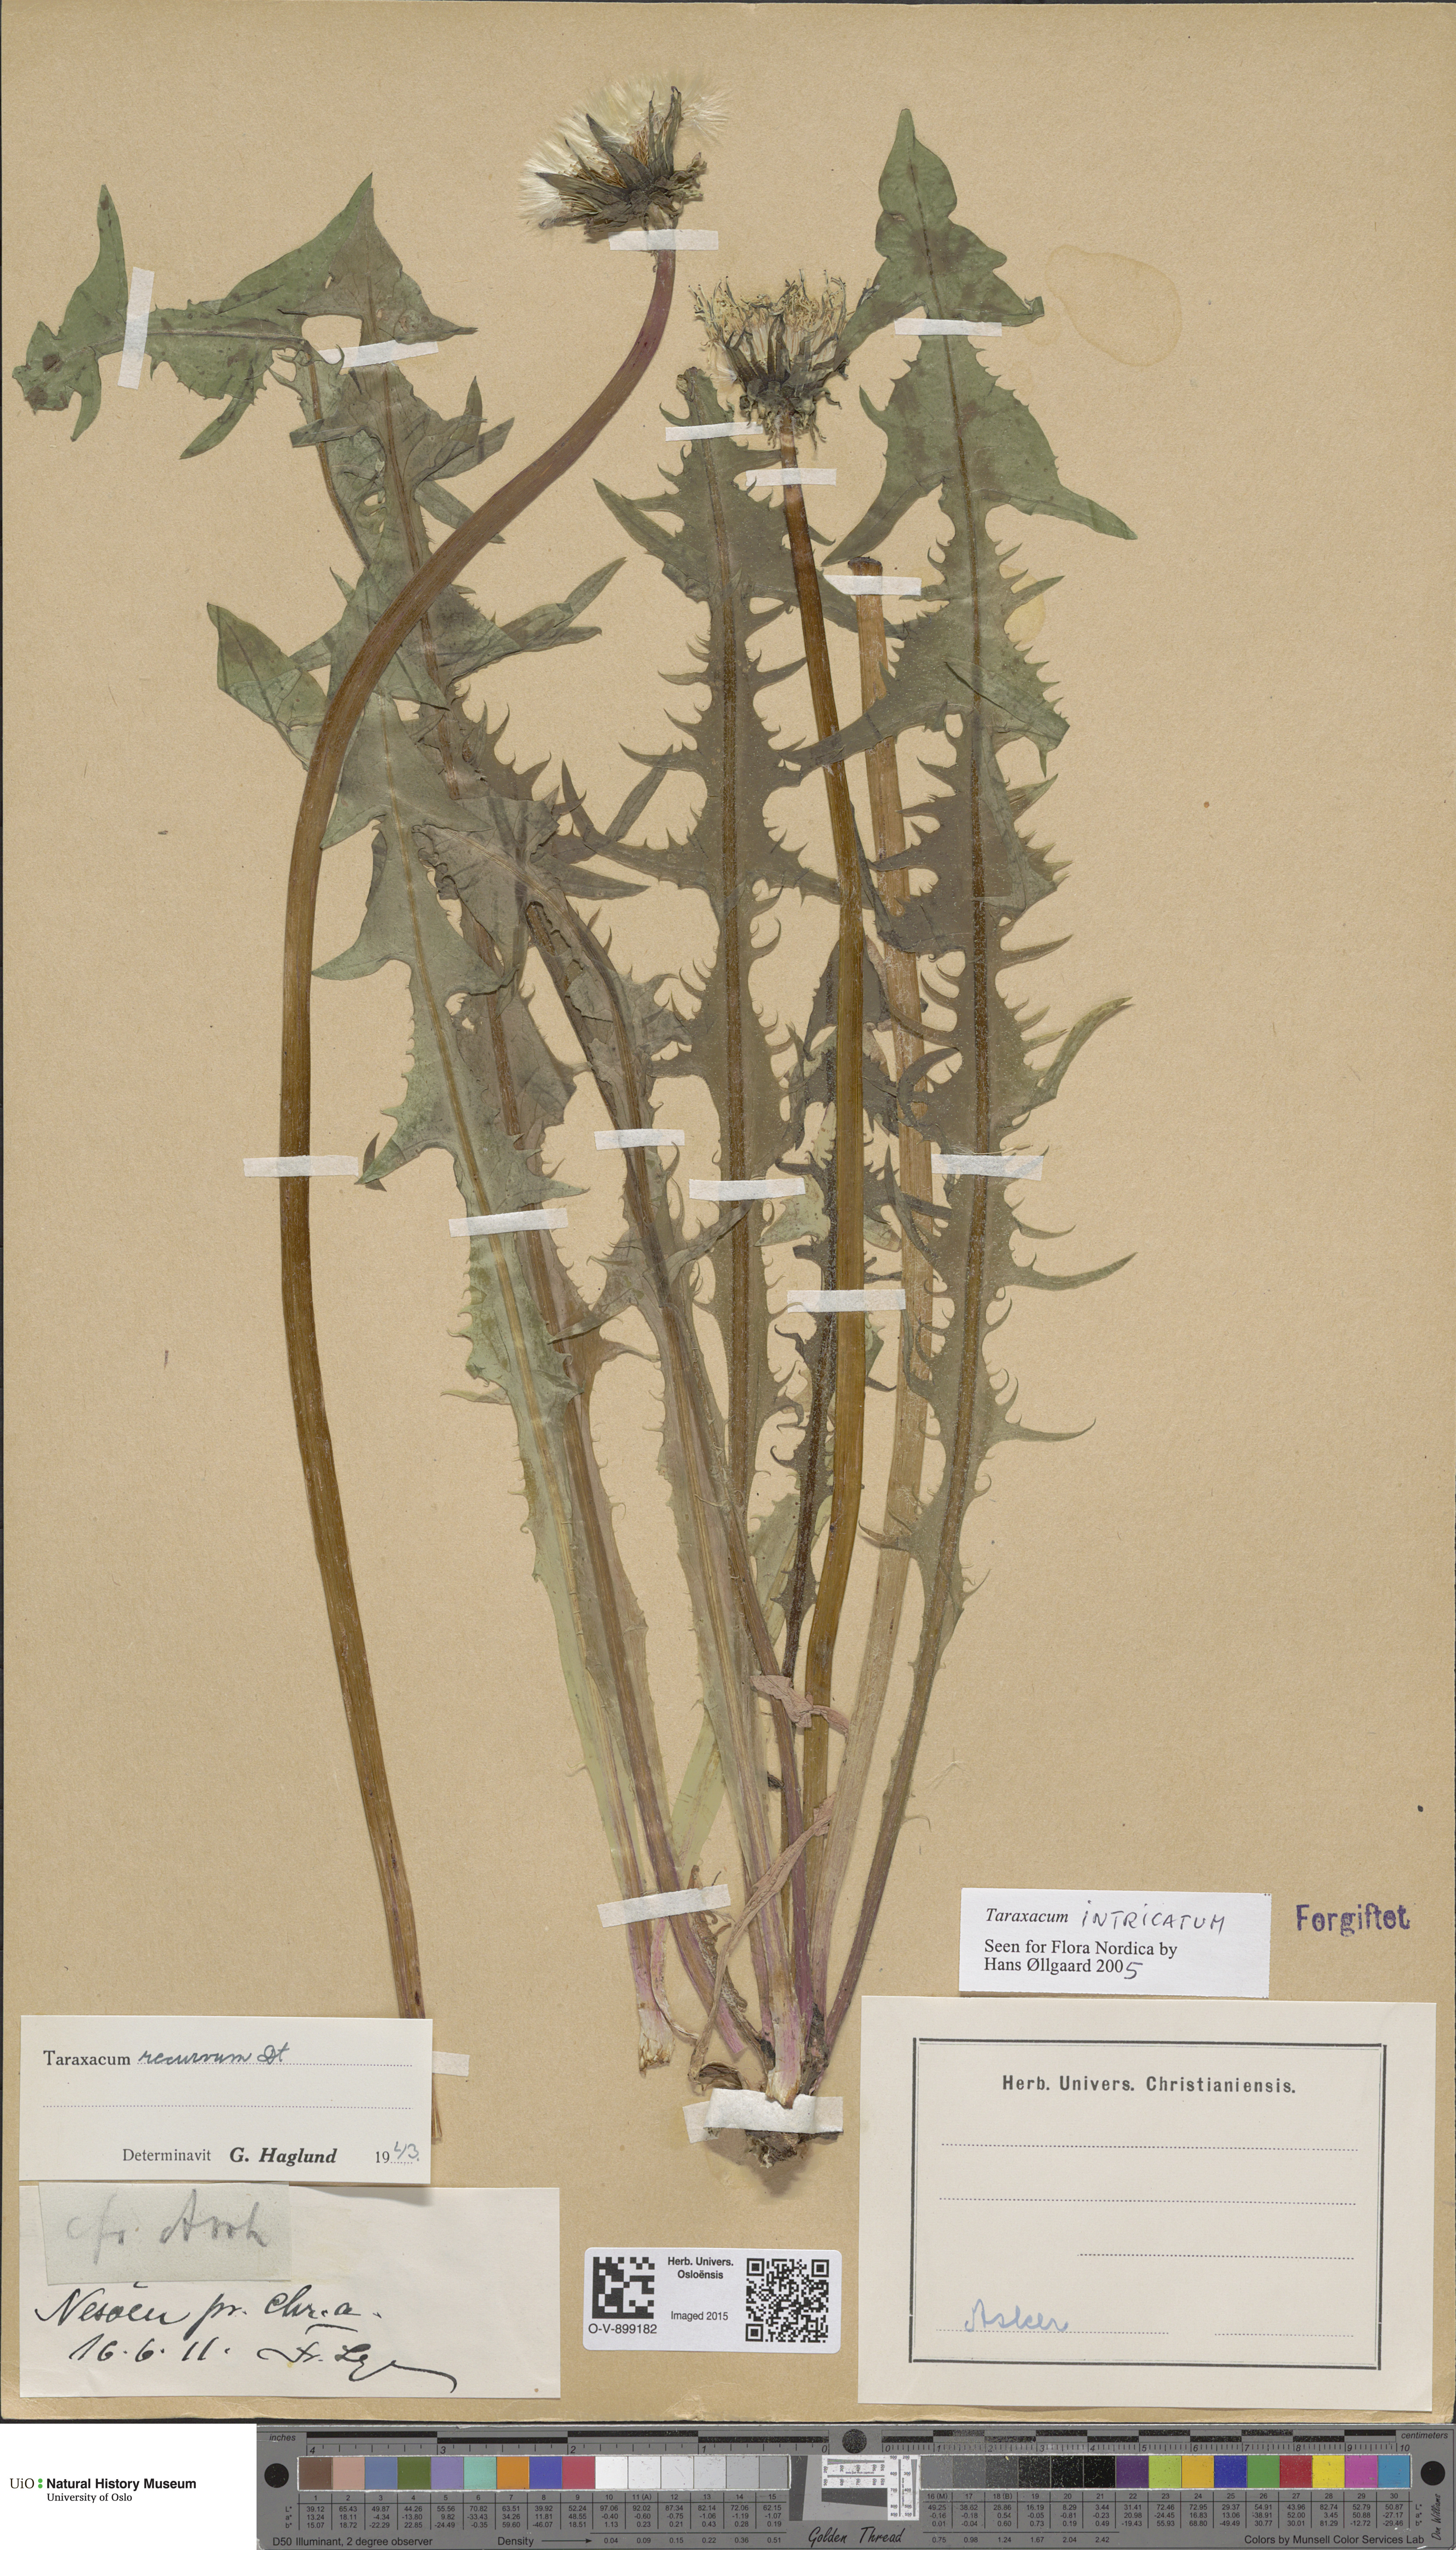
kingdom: Plantae
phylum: Tracheophyta
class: Magnoliopsida
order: Asterales
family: Asteraceae
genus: Taraxacum
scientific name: Taraxacum recurvum
